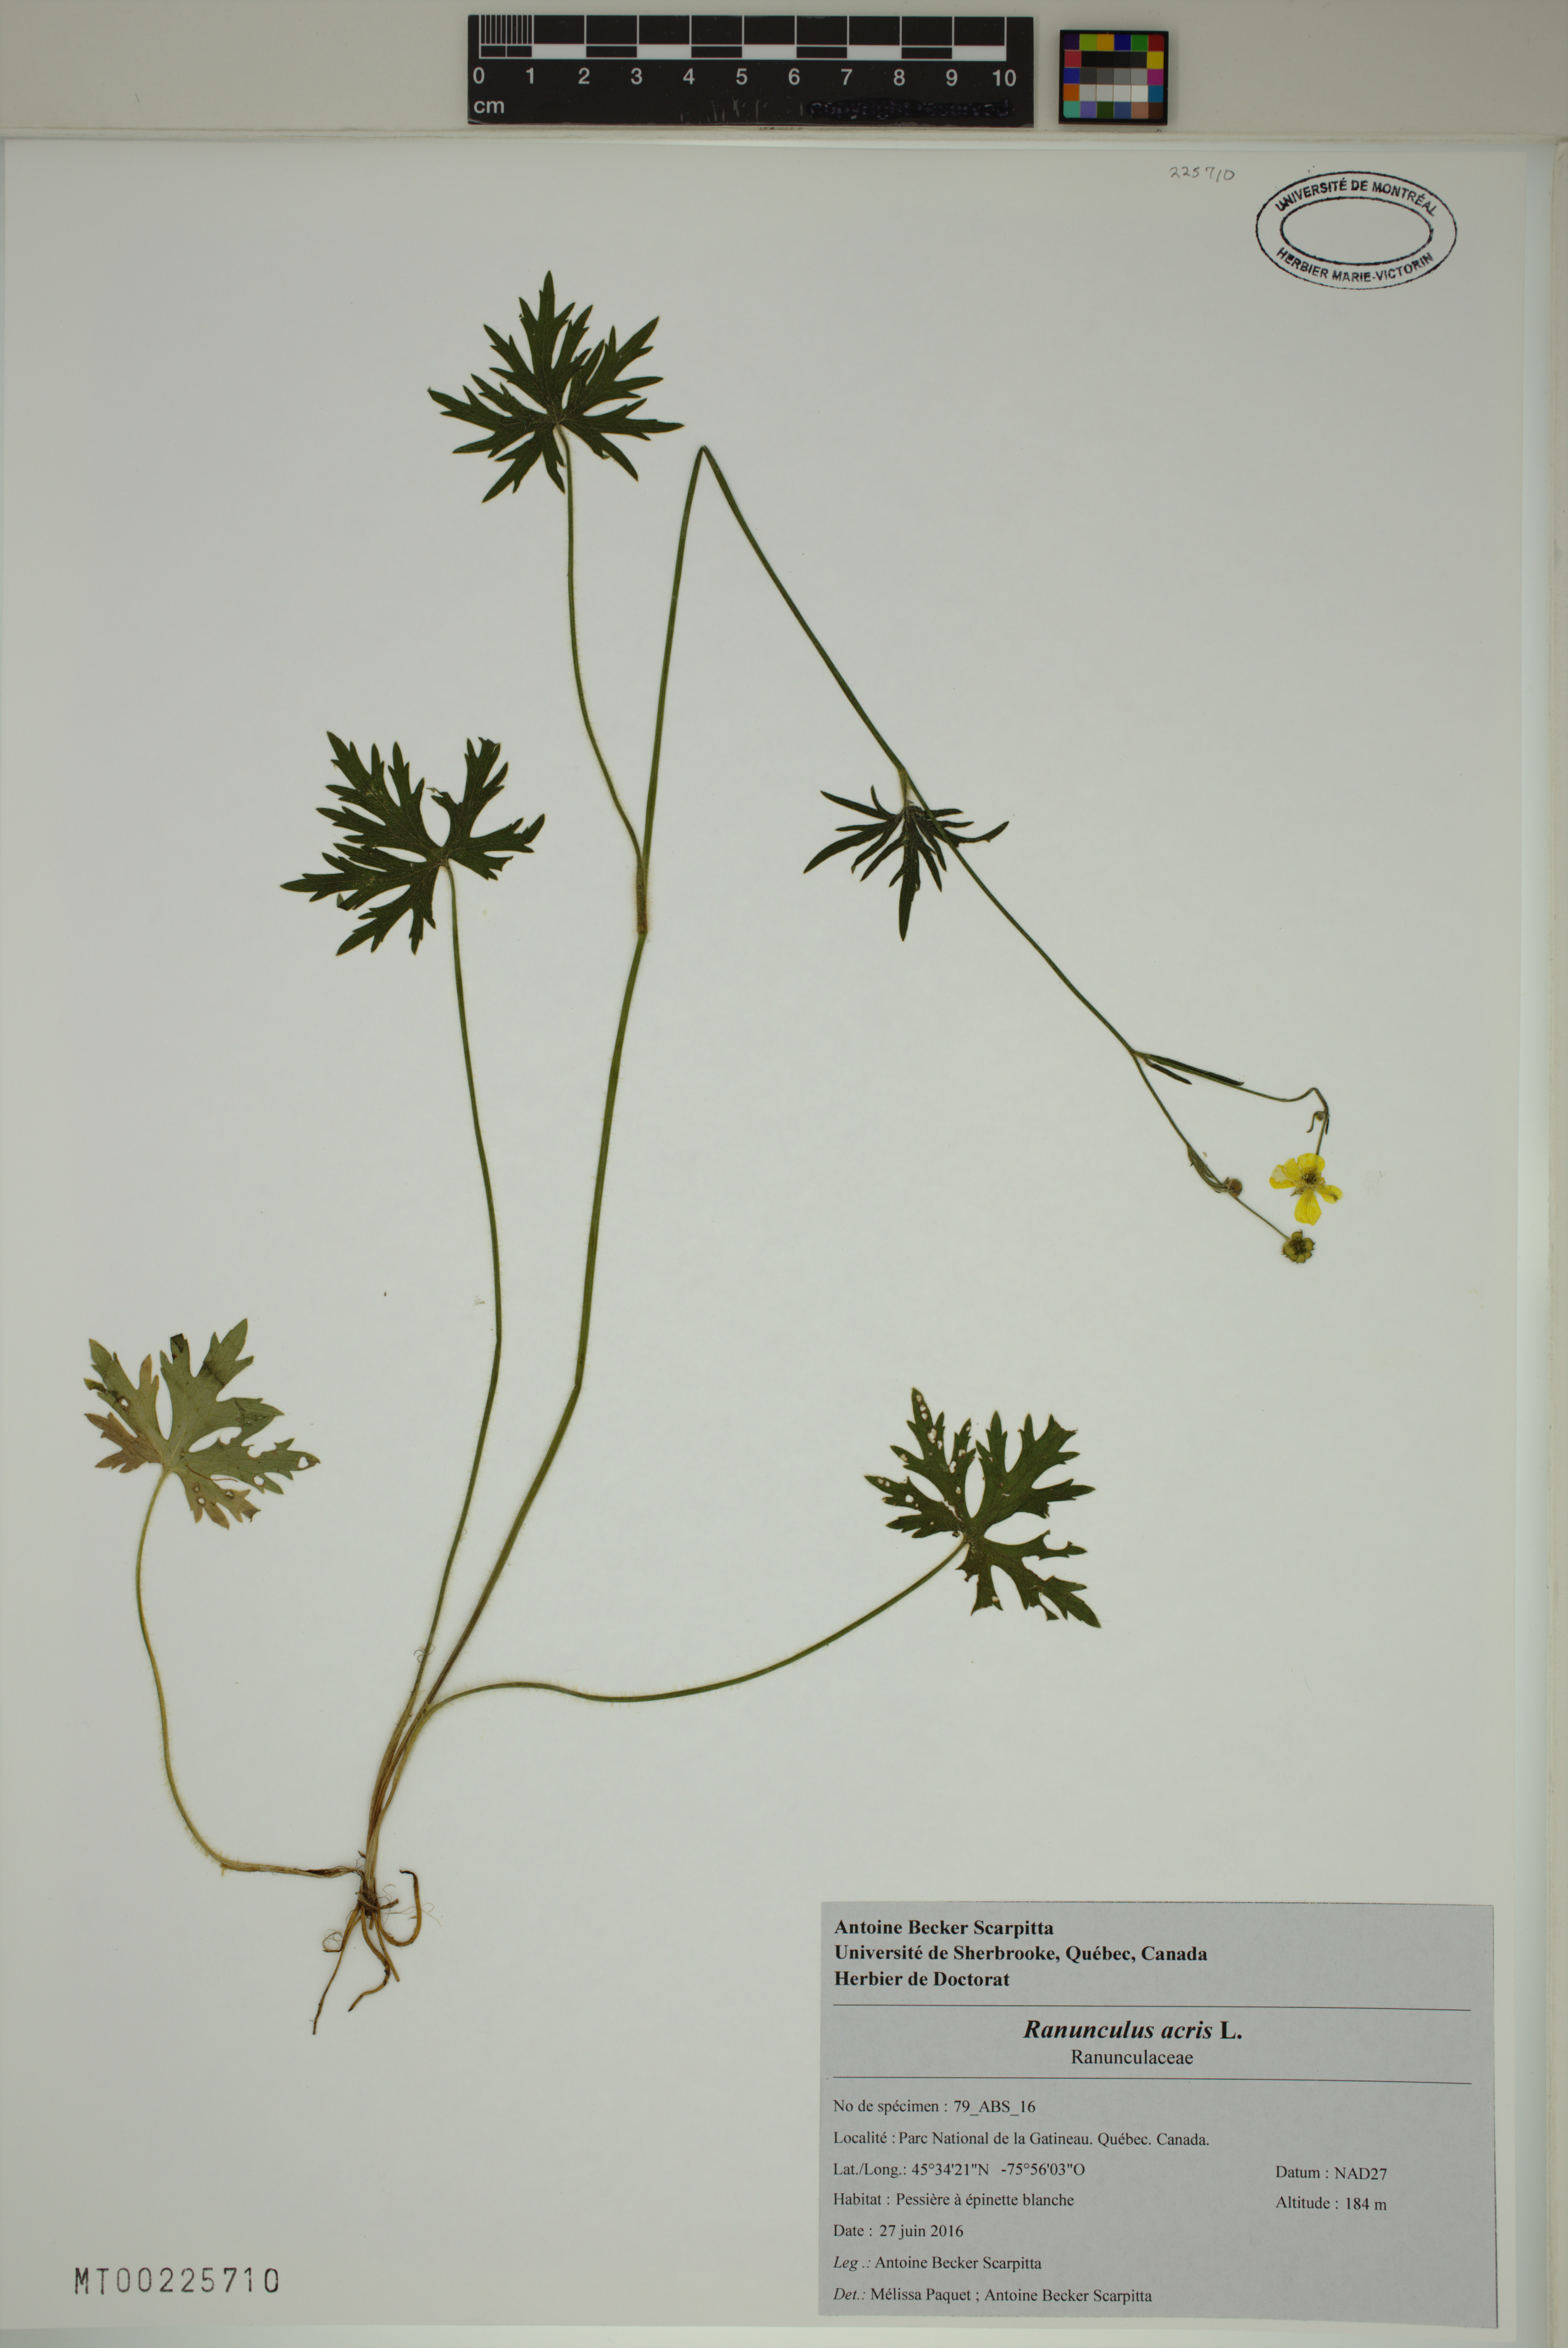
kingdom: Plantae
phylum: Tracheophyta
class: Magnoliopsida
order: Ranunculales
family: Ranunculaceae
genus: Ranunculus
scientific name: Ranunculus acris
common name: Meadow buttercup
